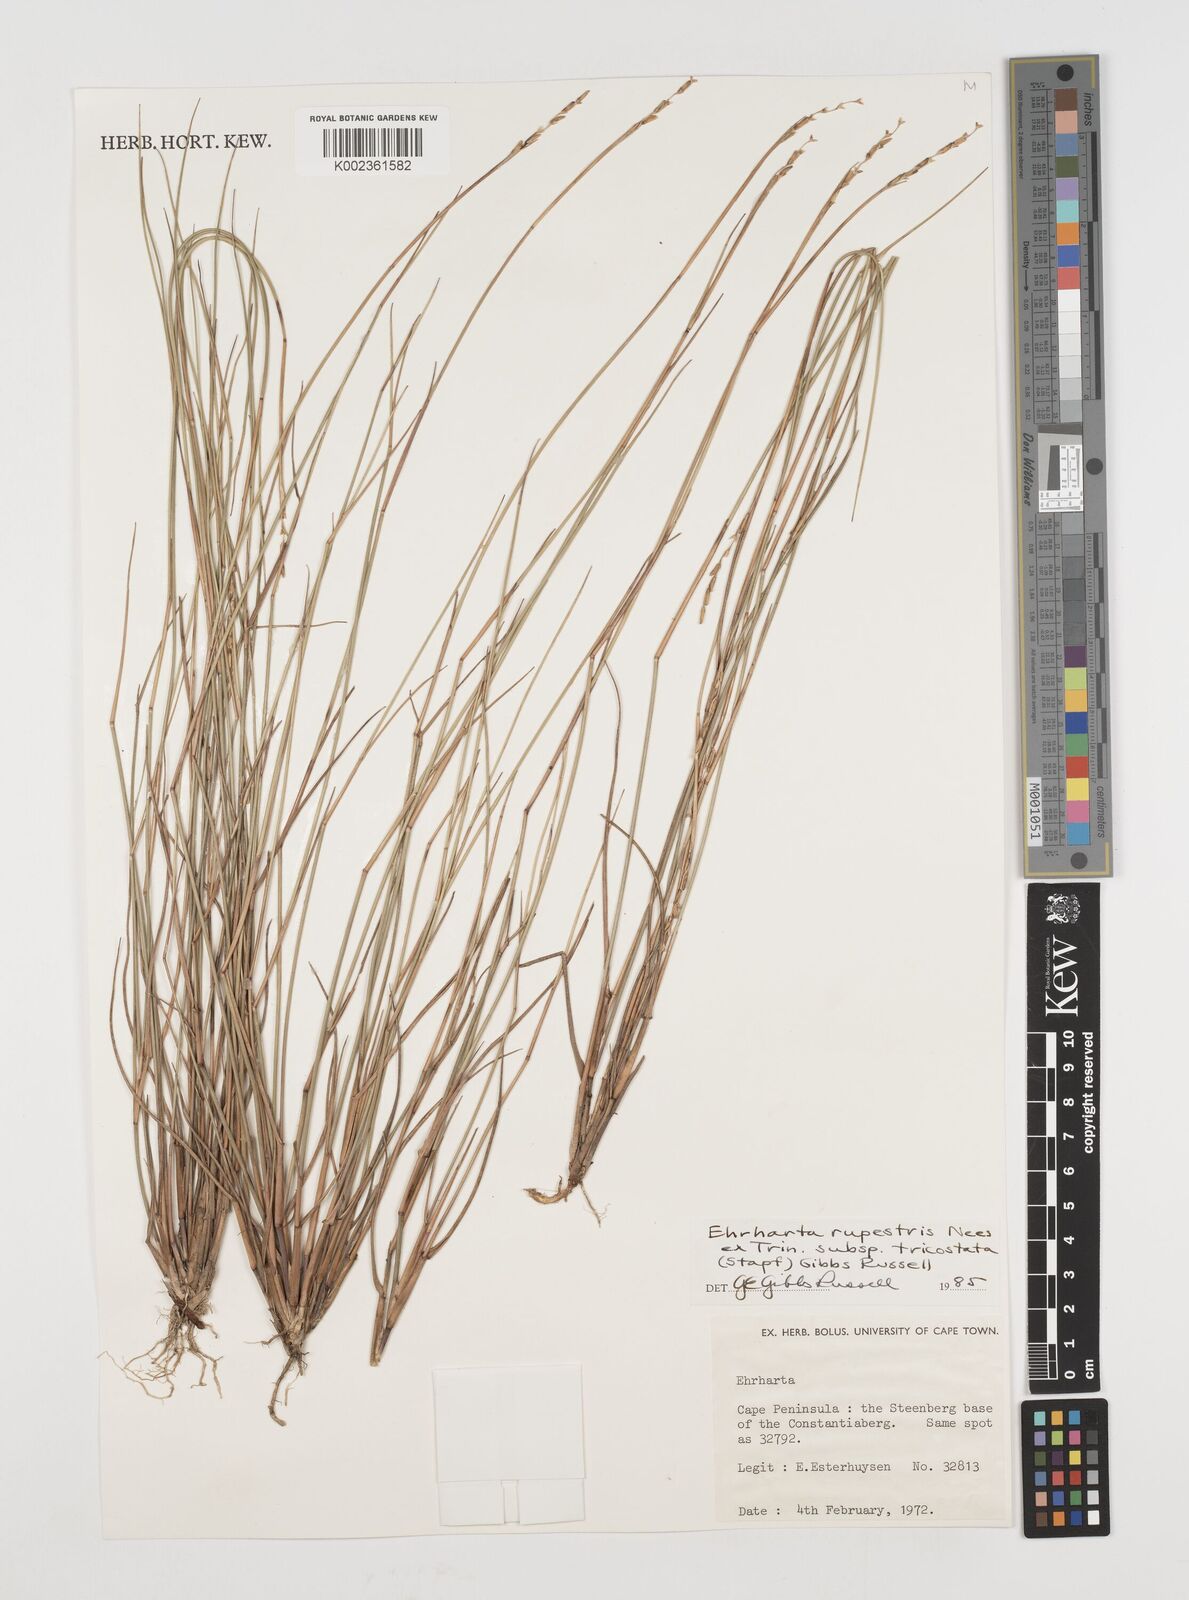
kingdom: Plantae
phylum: Tracheophyta
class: Liliopsida
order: Poales
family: Poaceae
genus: Ehrharta
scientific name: Ehrharta rupestris
